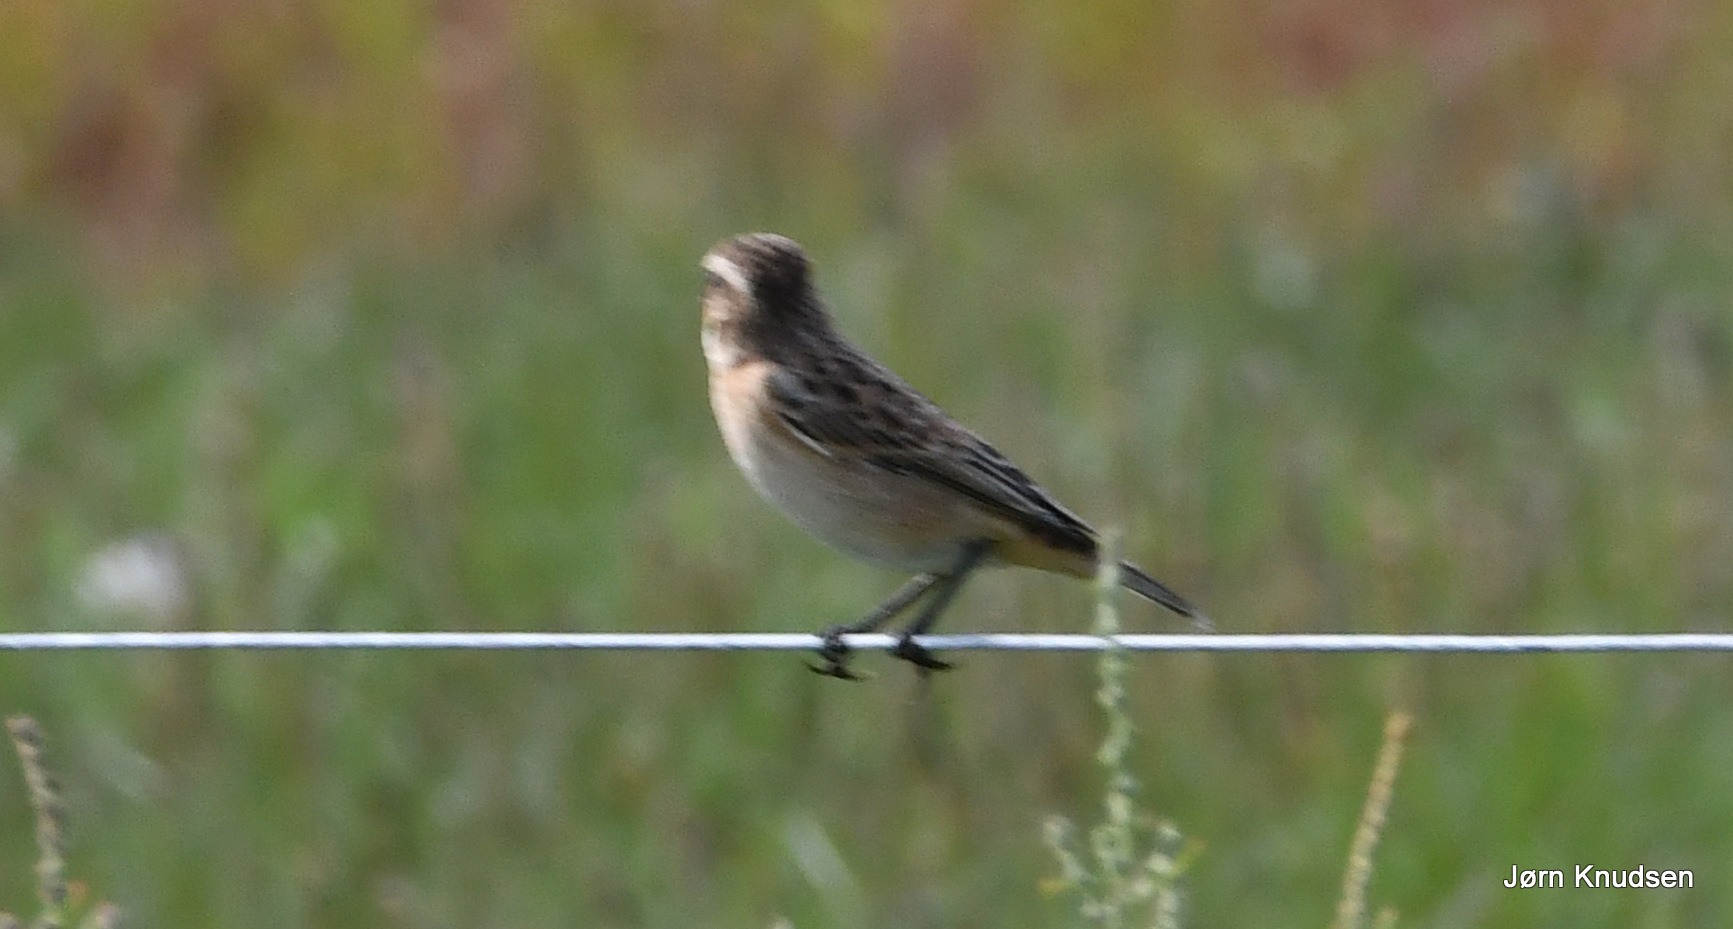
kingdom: Animalia
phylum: Chordata
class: Aves
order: Passeriformes
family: Muscicapidae
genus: Saxicola
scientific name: Saxicola rubetra
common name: Bynkefugl
